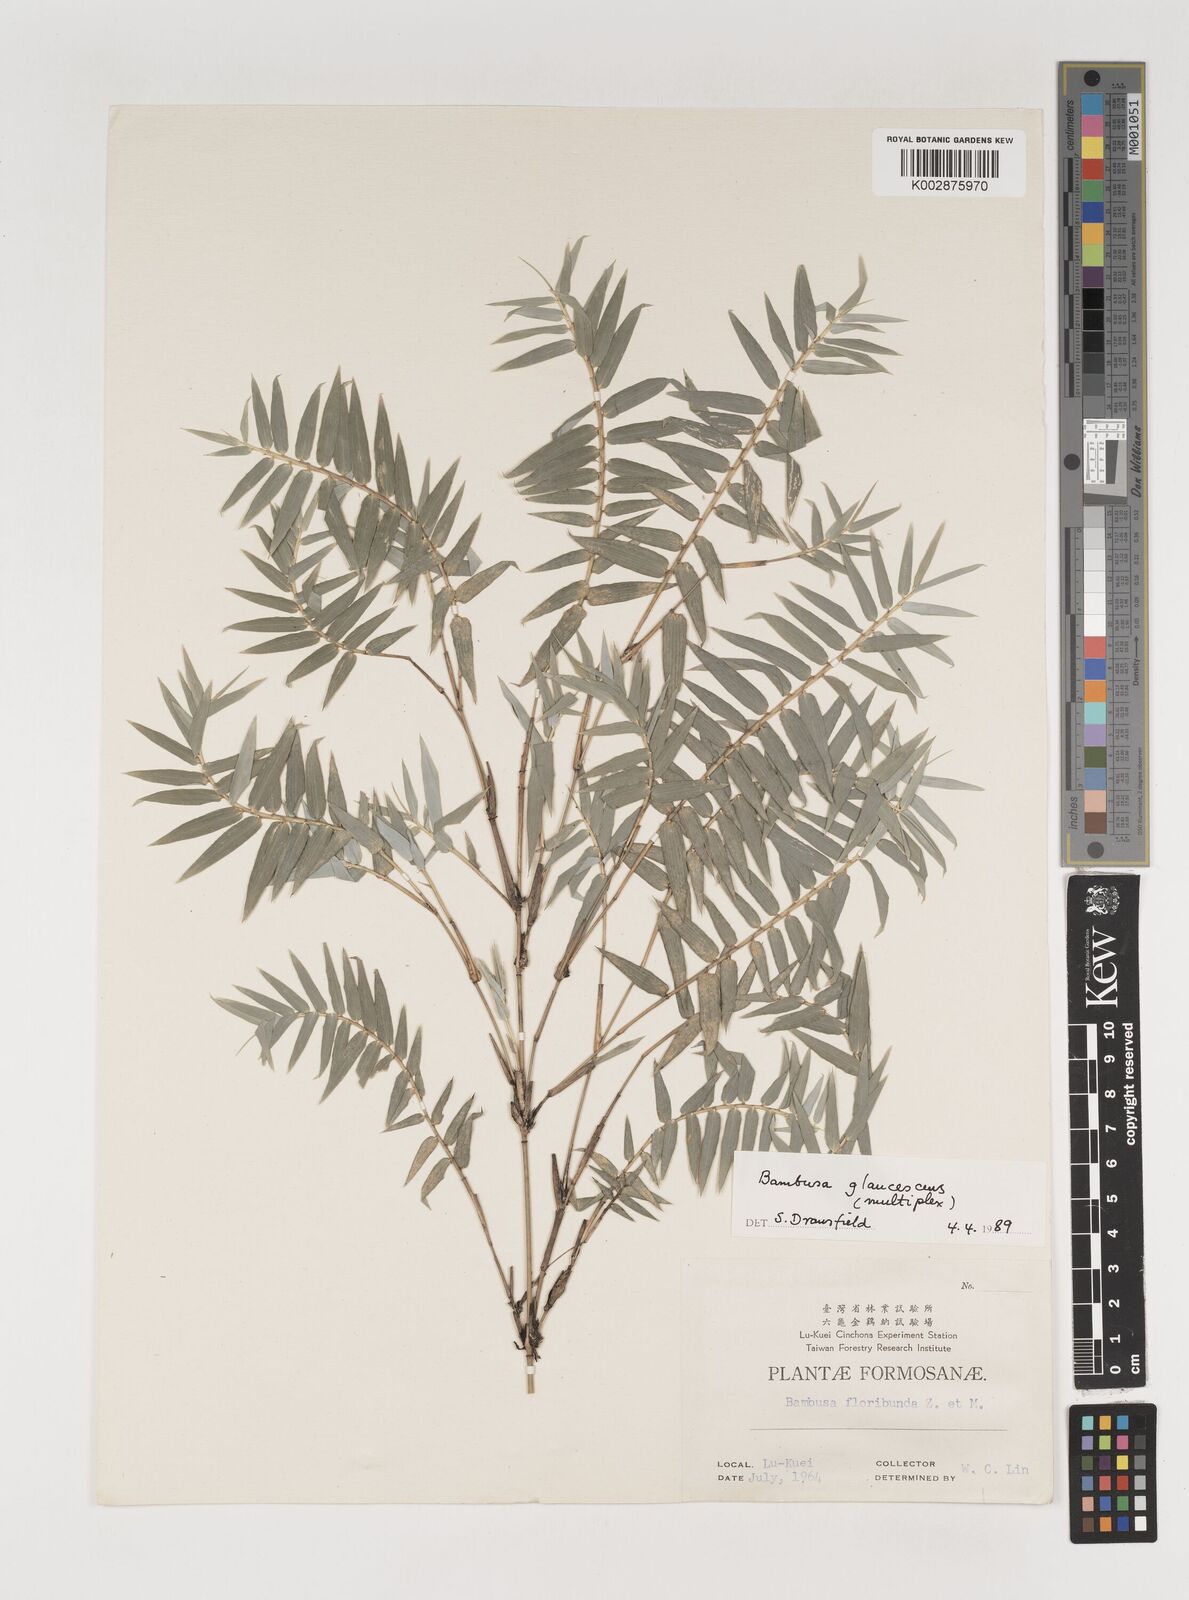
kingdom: Plantae
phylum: Tracheophyta
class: Liliopsida
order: Poales
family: Poaceae
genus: Bambusa
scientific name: Bambusa
